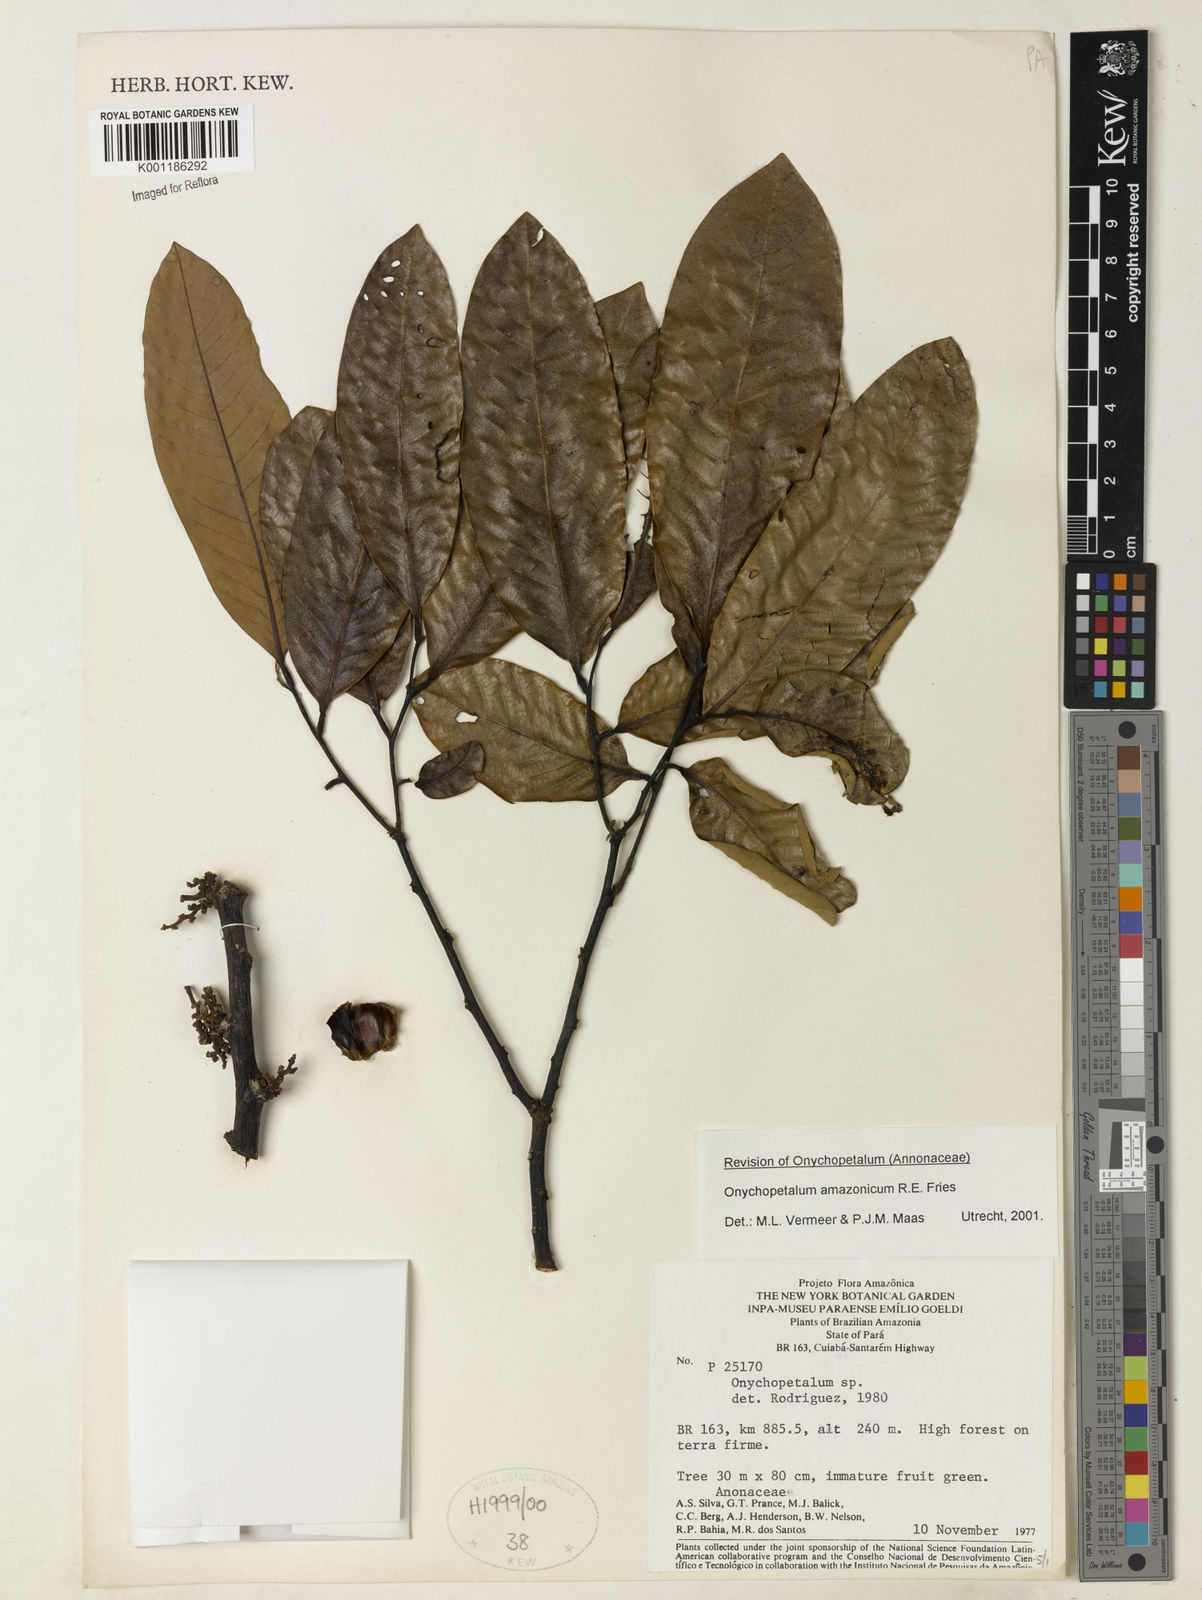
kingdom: Plantae
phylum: Tracheophyta
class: Magnoliopsida
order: Magnoliales
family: Annonaceae
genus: Onychopetalum
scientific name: Onychopetalum amazonicum
